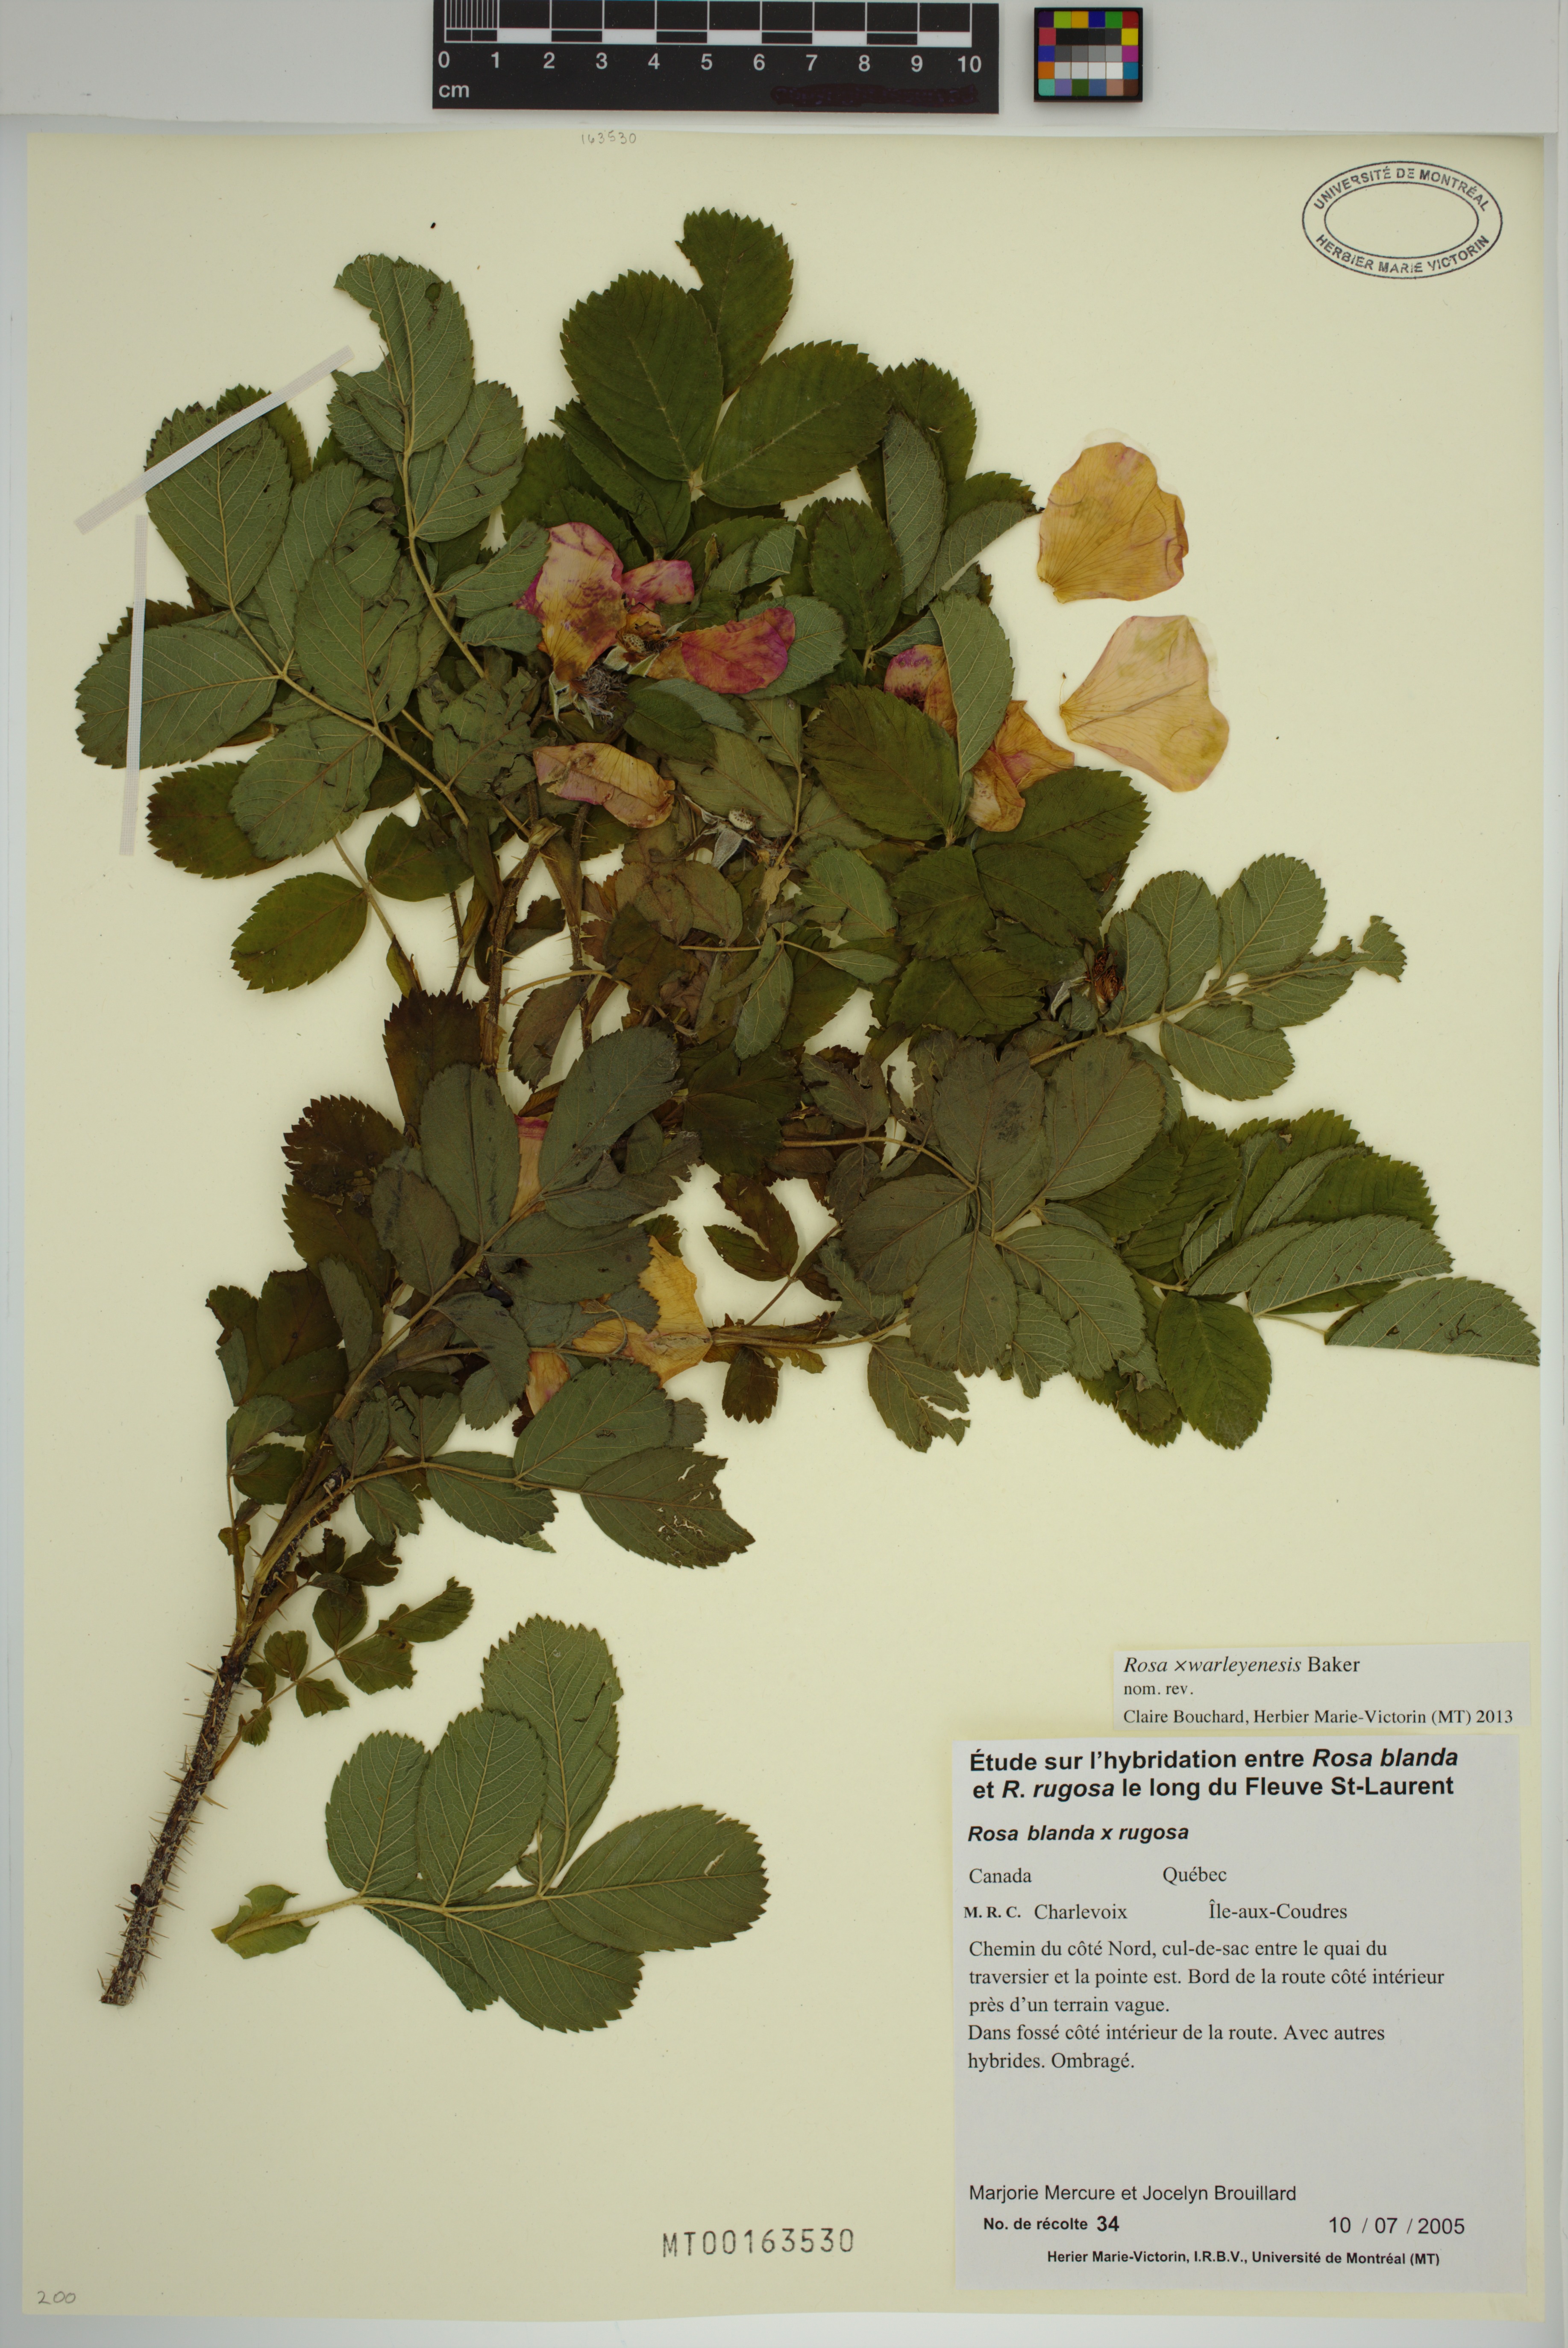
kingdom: Plantae
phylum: Tracheophyta
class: Magnoliopsida
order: Rosales
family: Rosaceae
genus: Rosa
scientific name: Rosa warleyensis
